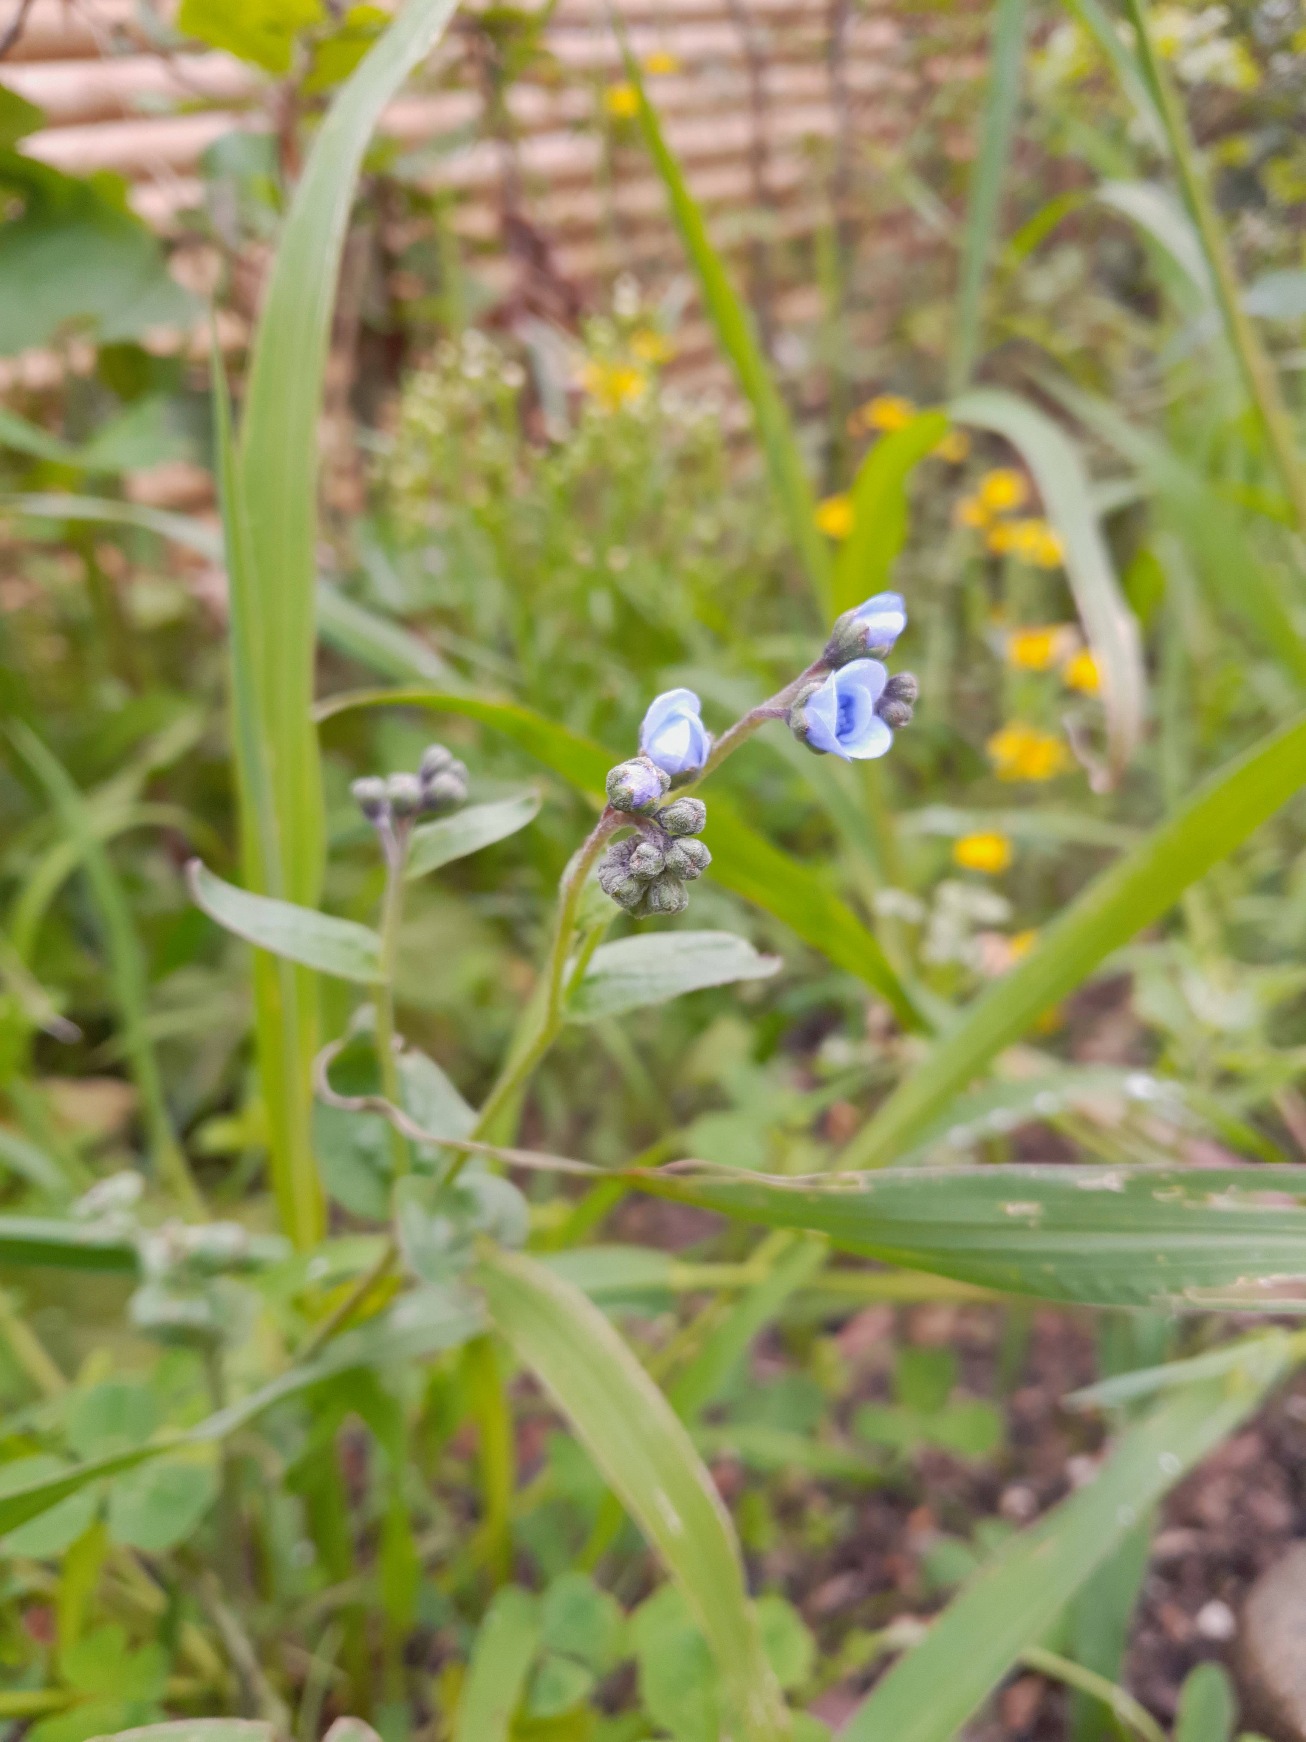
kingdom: Plantae
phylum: Tracheophyta
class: Magnoliopsida
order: Boraginales
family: Boraginaceae
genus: Cynoglossum
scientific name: Cynoglossum amabile
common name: Kinesisk hundetunge
